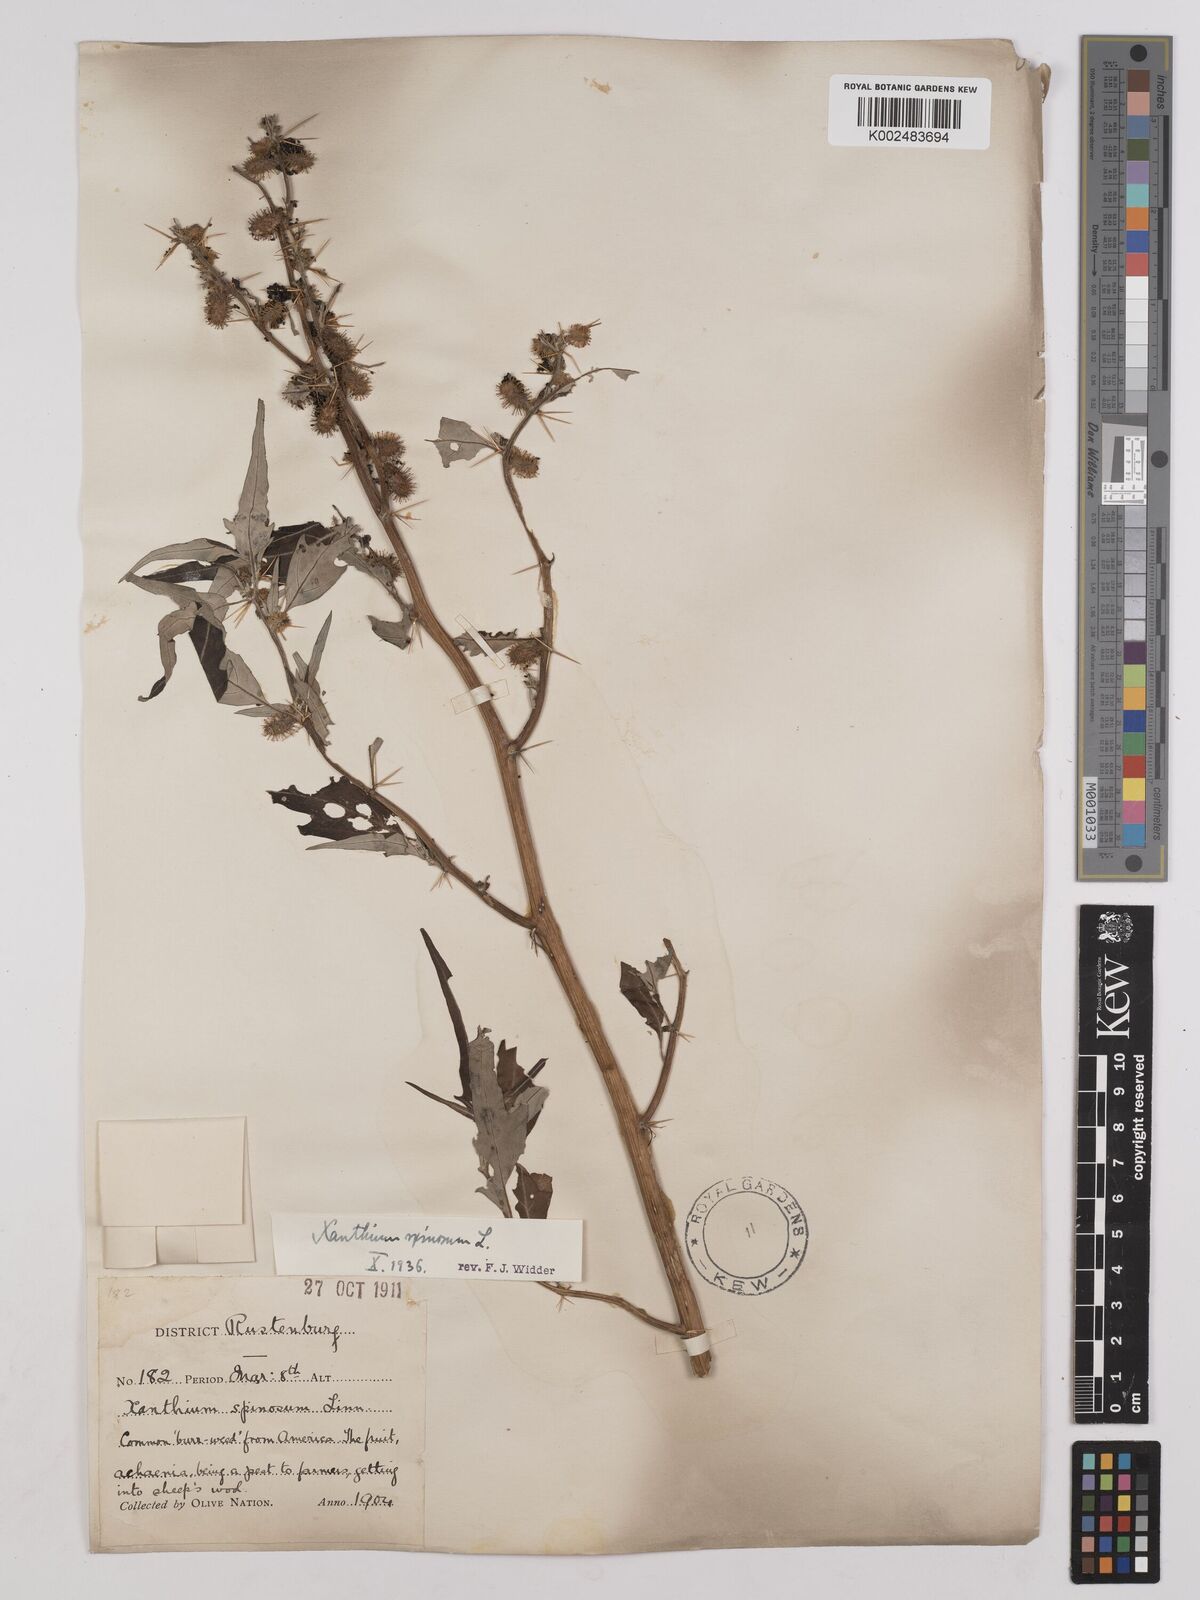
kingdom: Plantae
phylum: Tracheophyta
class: Magnoliopsida
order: Asterales
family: Asteraceae
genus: Xanthium
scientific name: Xanthium spinosum
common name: Spiny cocklebur
